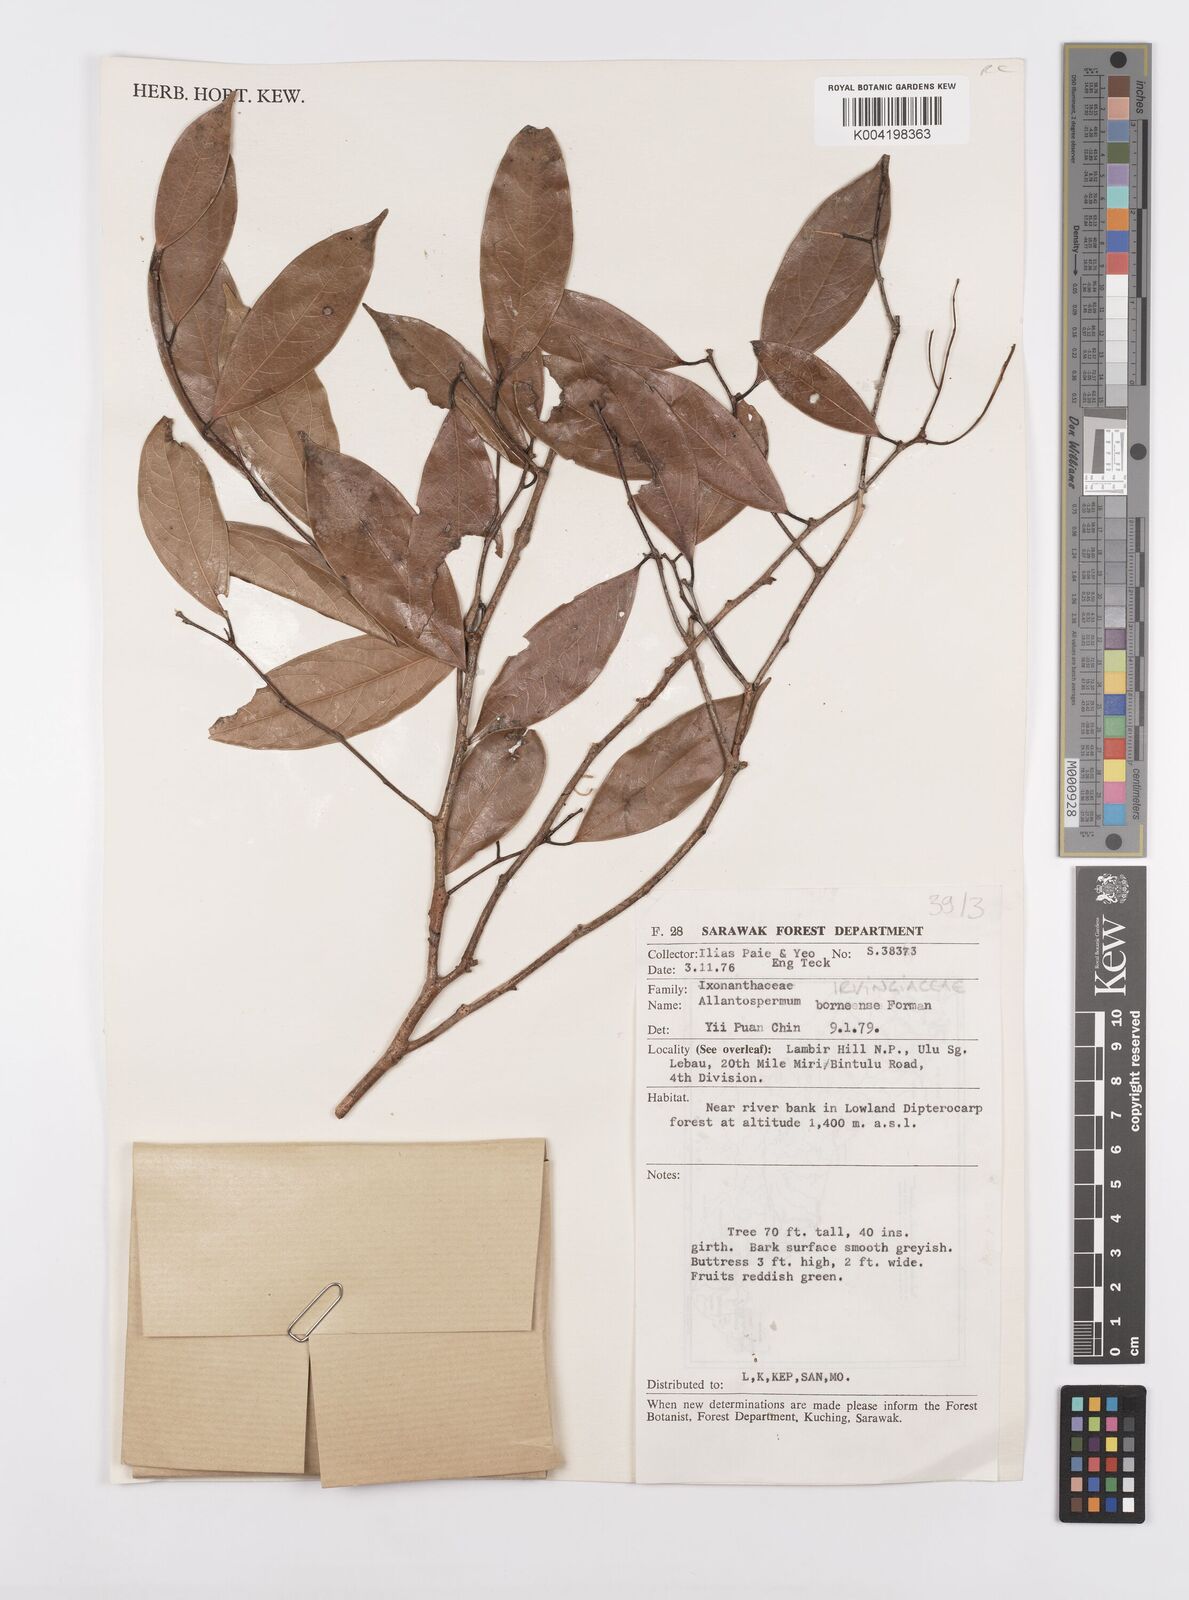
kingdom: Plantae
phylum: Tracheophyta
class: Magnoliopsida
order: Malpighiales
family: Ixonanthaceae
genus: Allantospermum
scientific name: Allantospermum borneense
